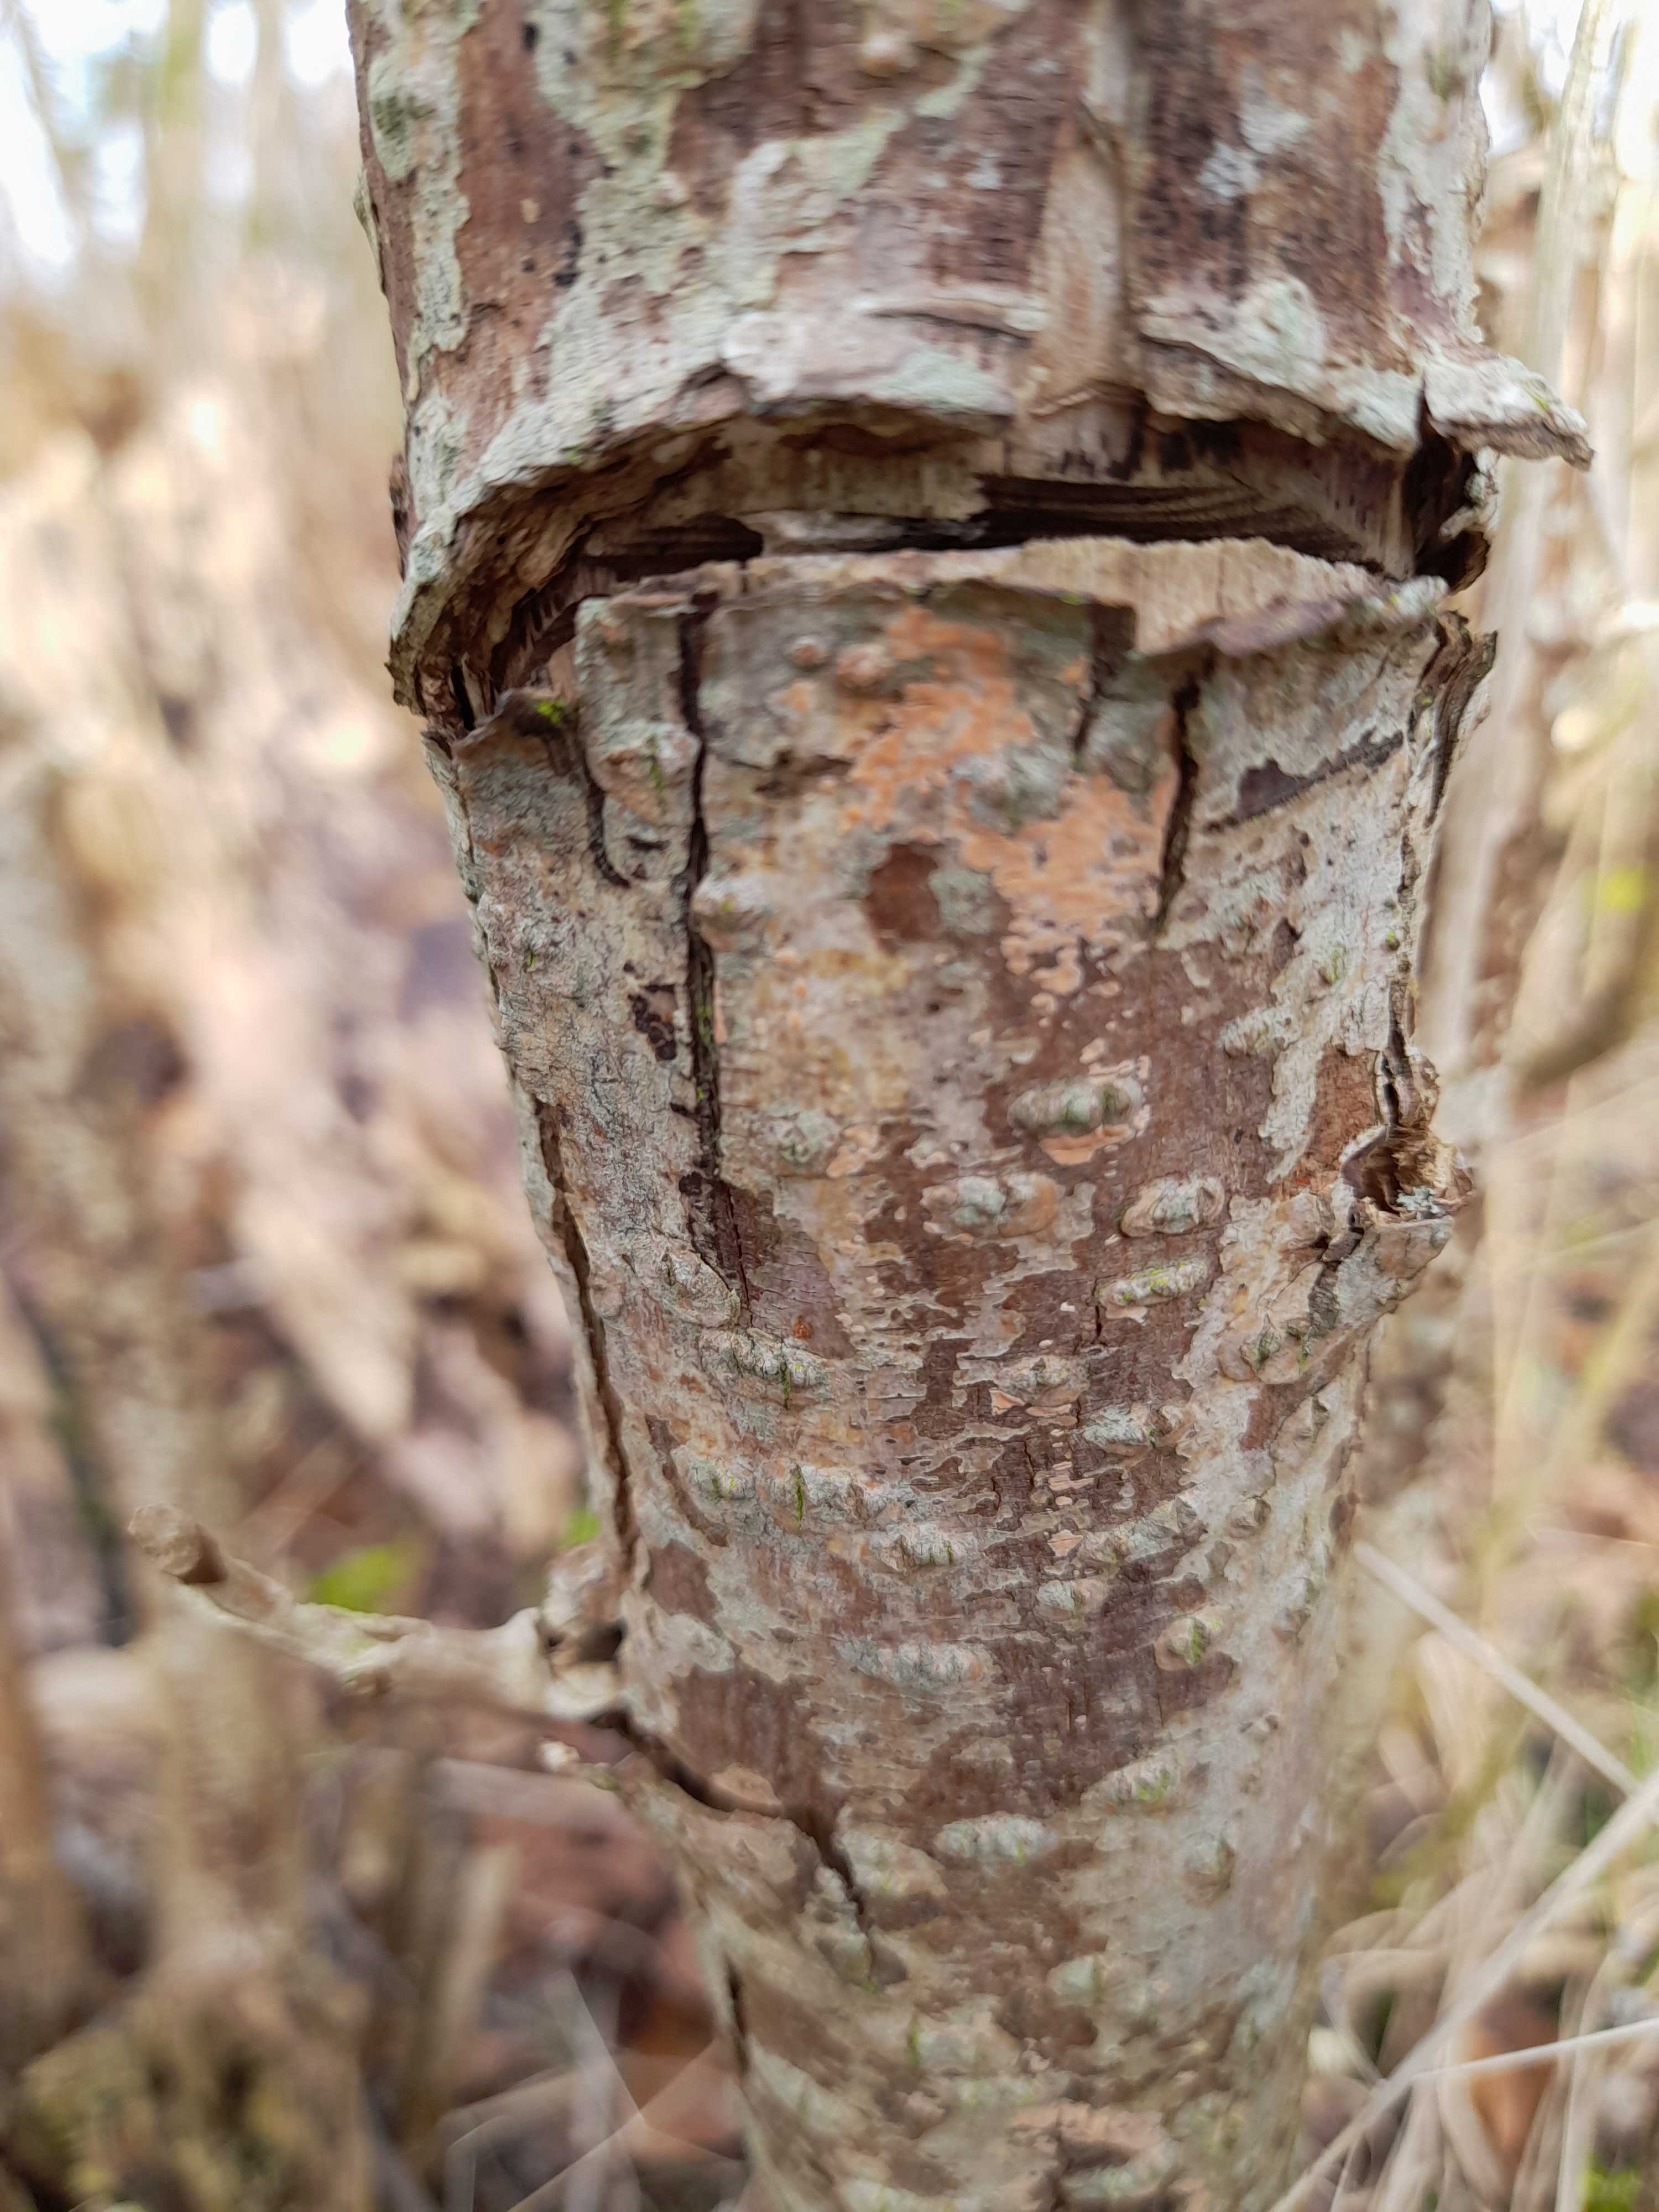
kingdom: Fungi
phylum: Basidiomycota
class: Agaricomycetes
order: Russulales
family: Peniophoraceae
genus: Peniophora
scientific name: Peniophora incarnata
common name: laksefarvet voksskind
